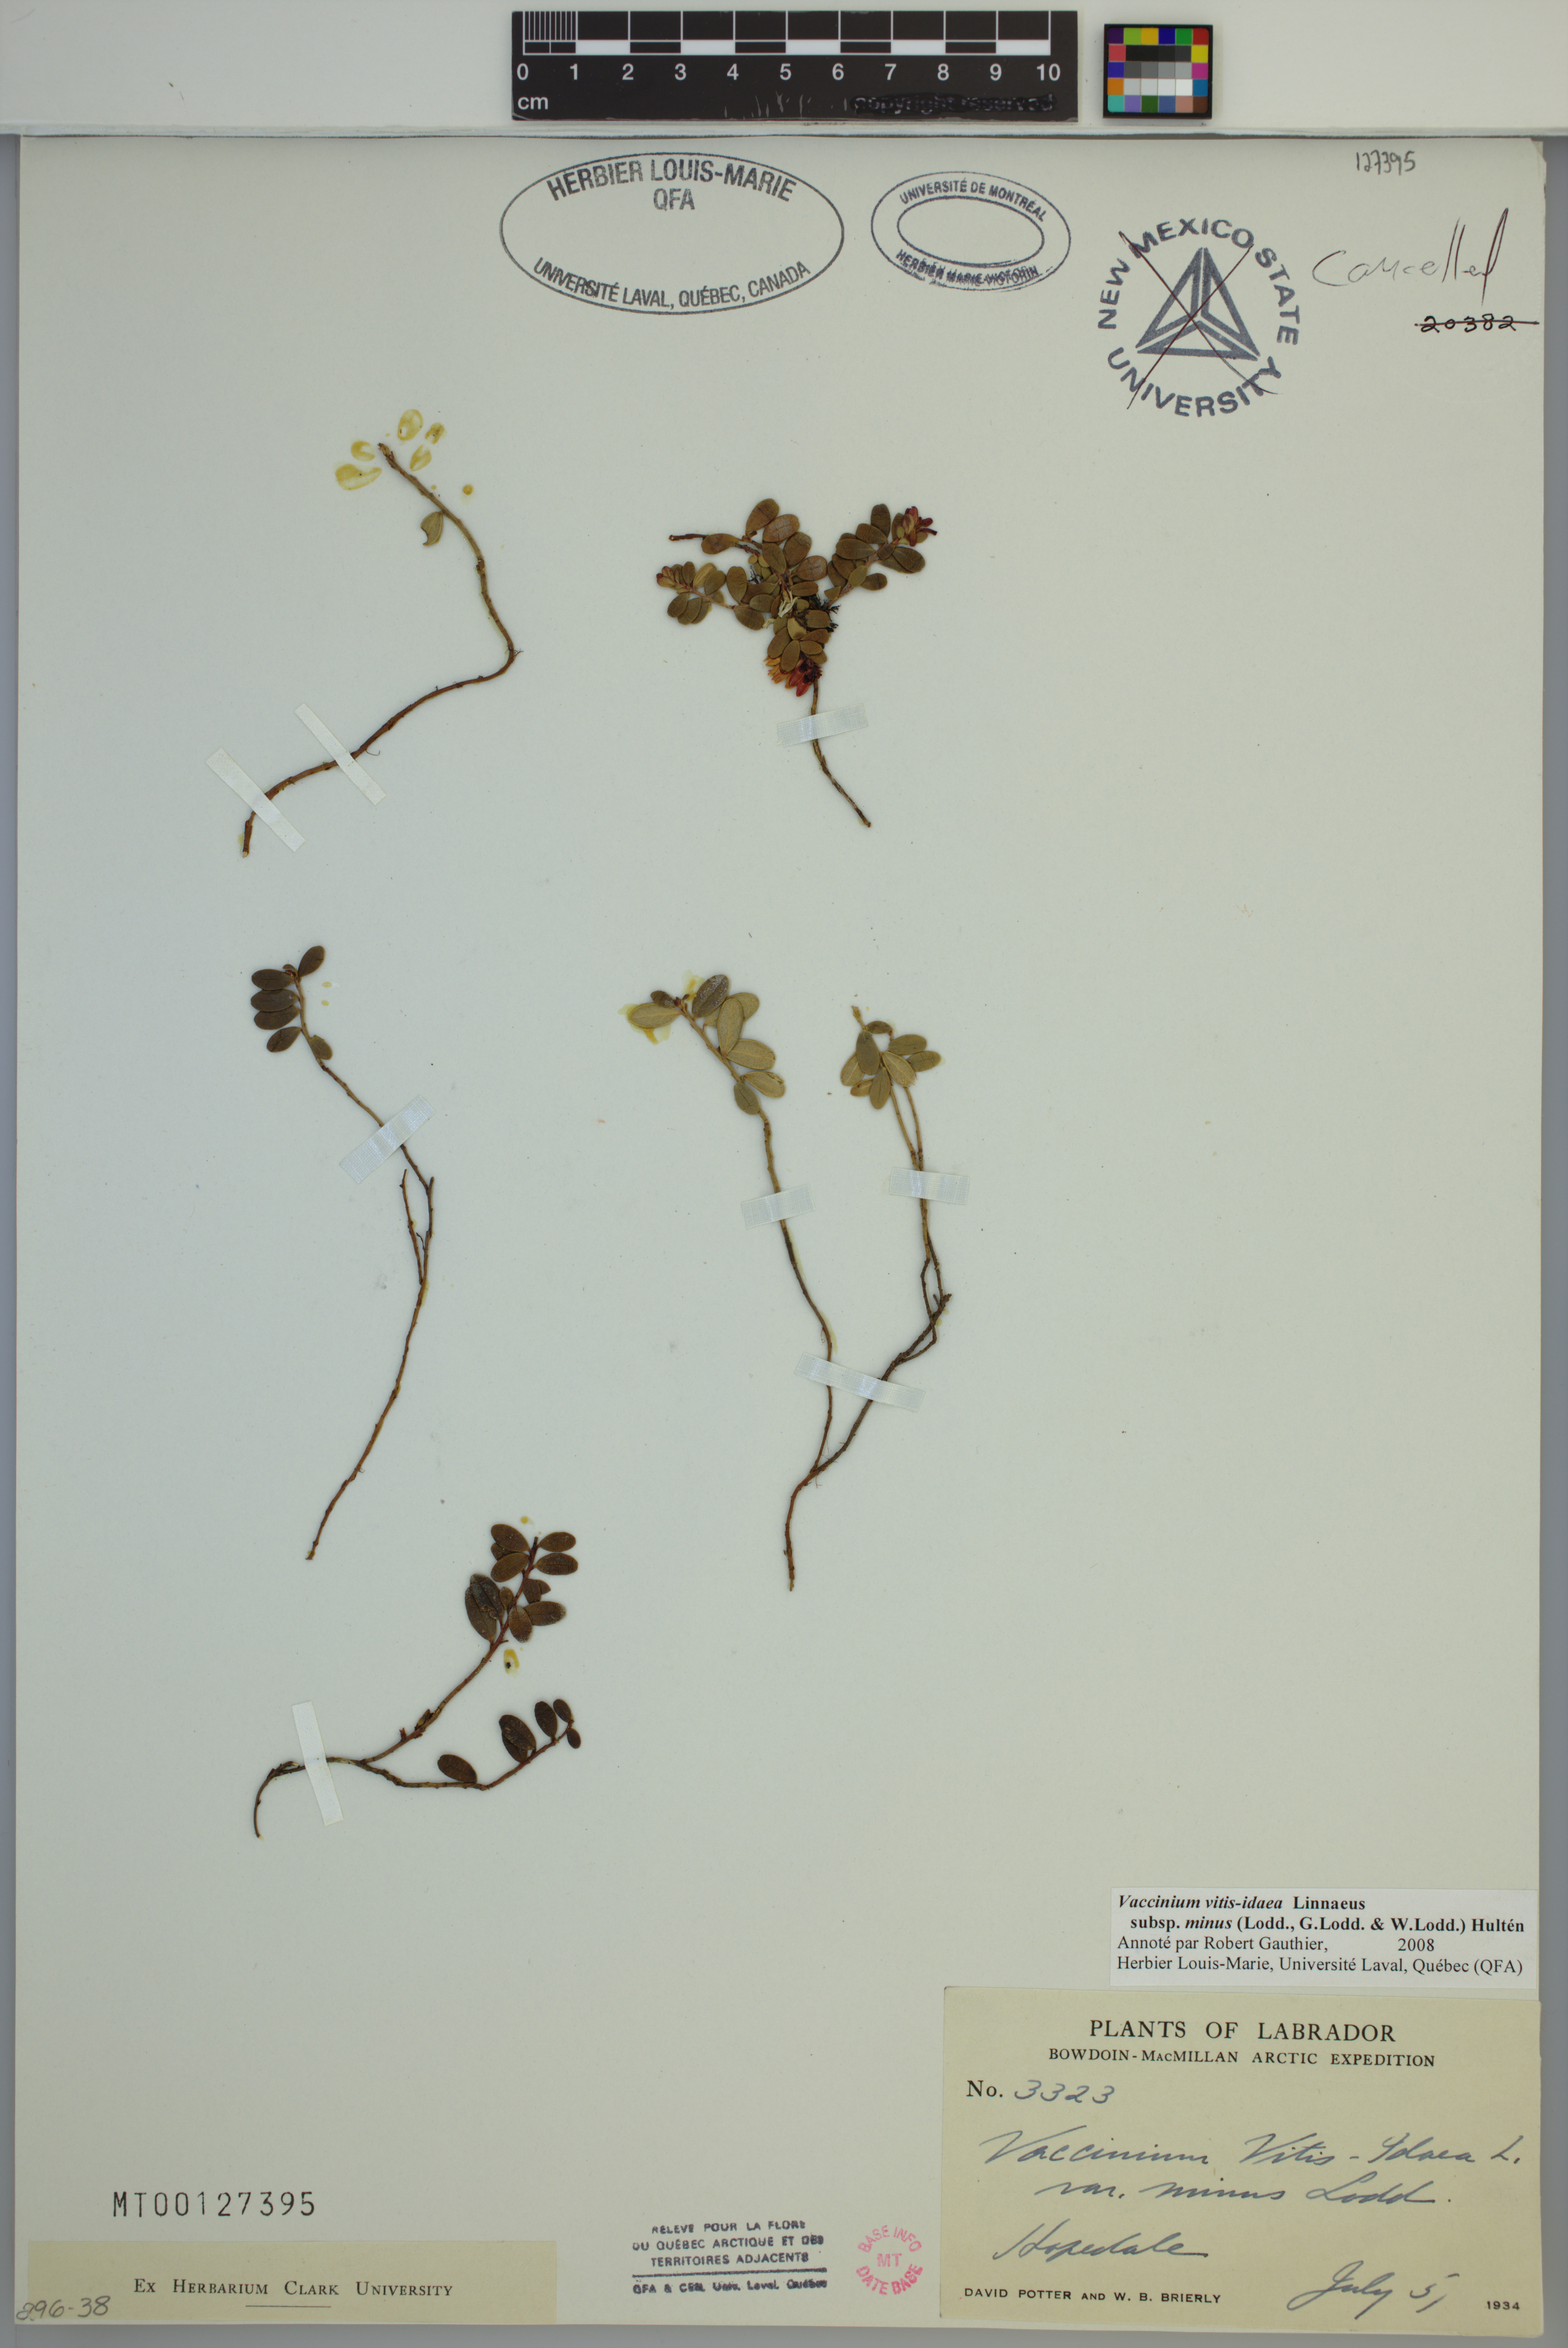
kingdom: Plantae
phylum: Tracheophyta
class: Magnoliopsida
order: Ericales
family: Ericaceae
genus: Vaccinium
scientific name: Vaccinium vitis-idaea
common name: Cowberry
